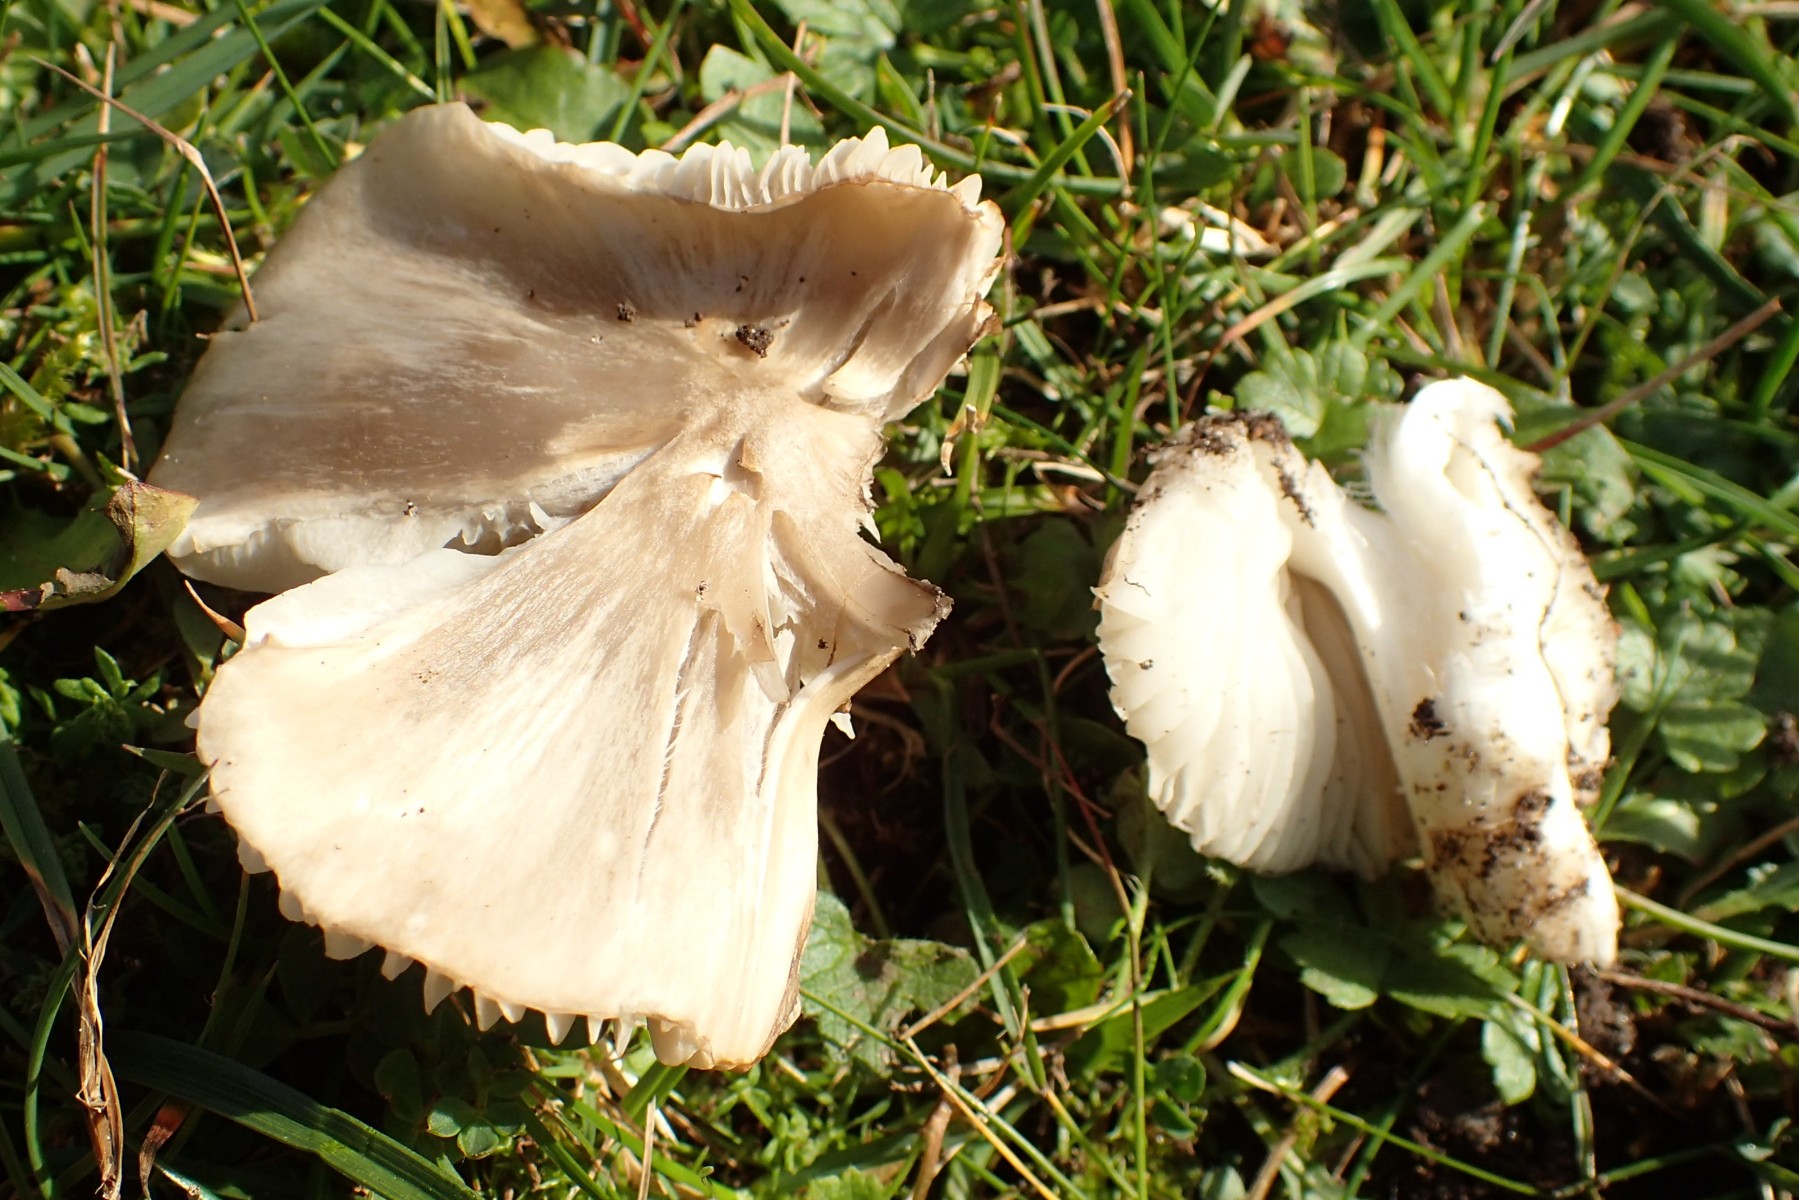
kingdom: Fungi
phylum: Basidiomycota
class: Agaricomycetes
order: Agaricales
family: Hygrophoraceae
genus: Cuphophyllus
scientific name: Cuphophyllus fornicatus
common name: gråbrun vokshat
